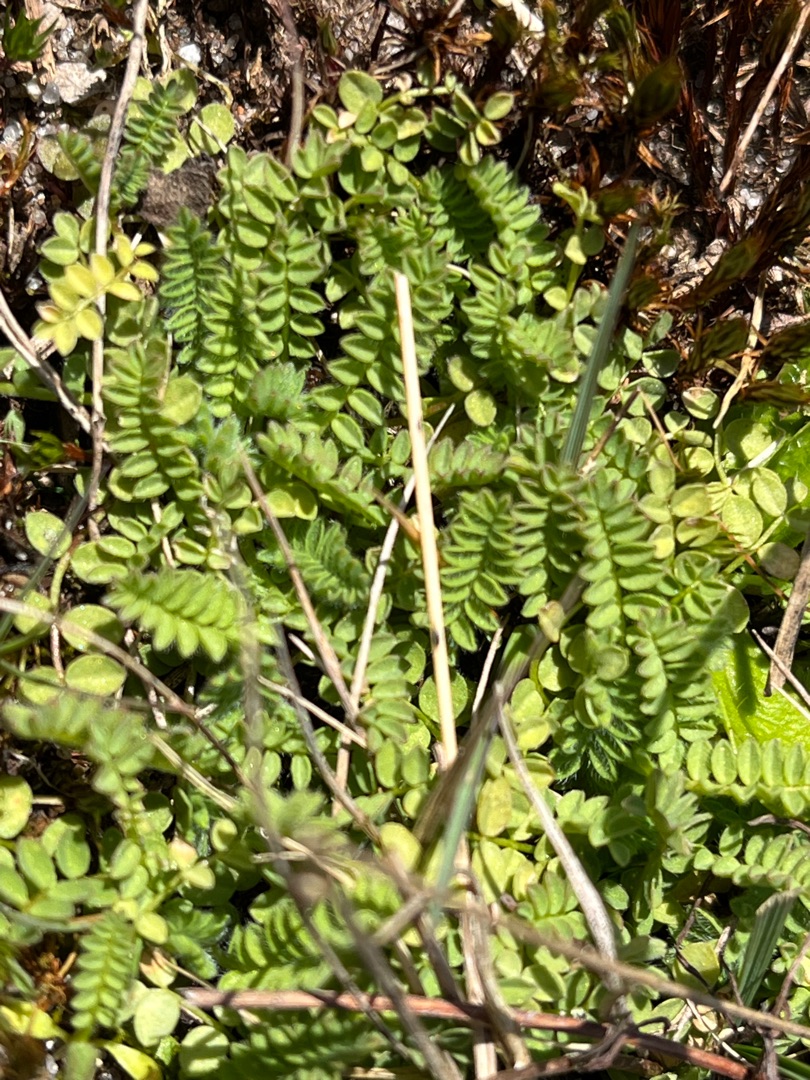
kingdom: Plantae
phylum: Tracheophyta
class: Magnoliopsida
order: Fabales
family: Fabaceae
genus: Ornithopus
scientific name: Ornithopus perpusillus
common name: Liden fugleklo
